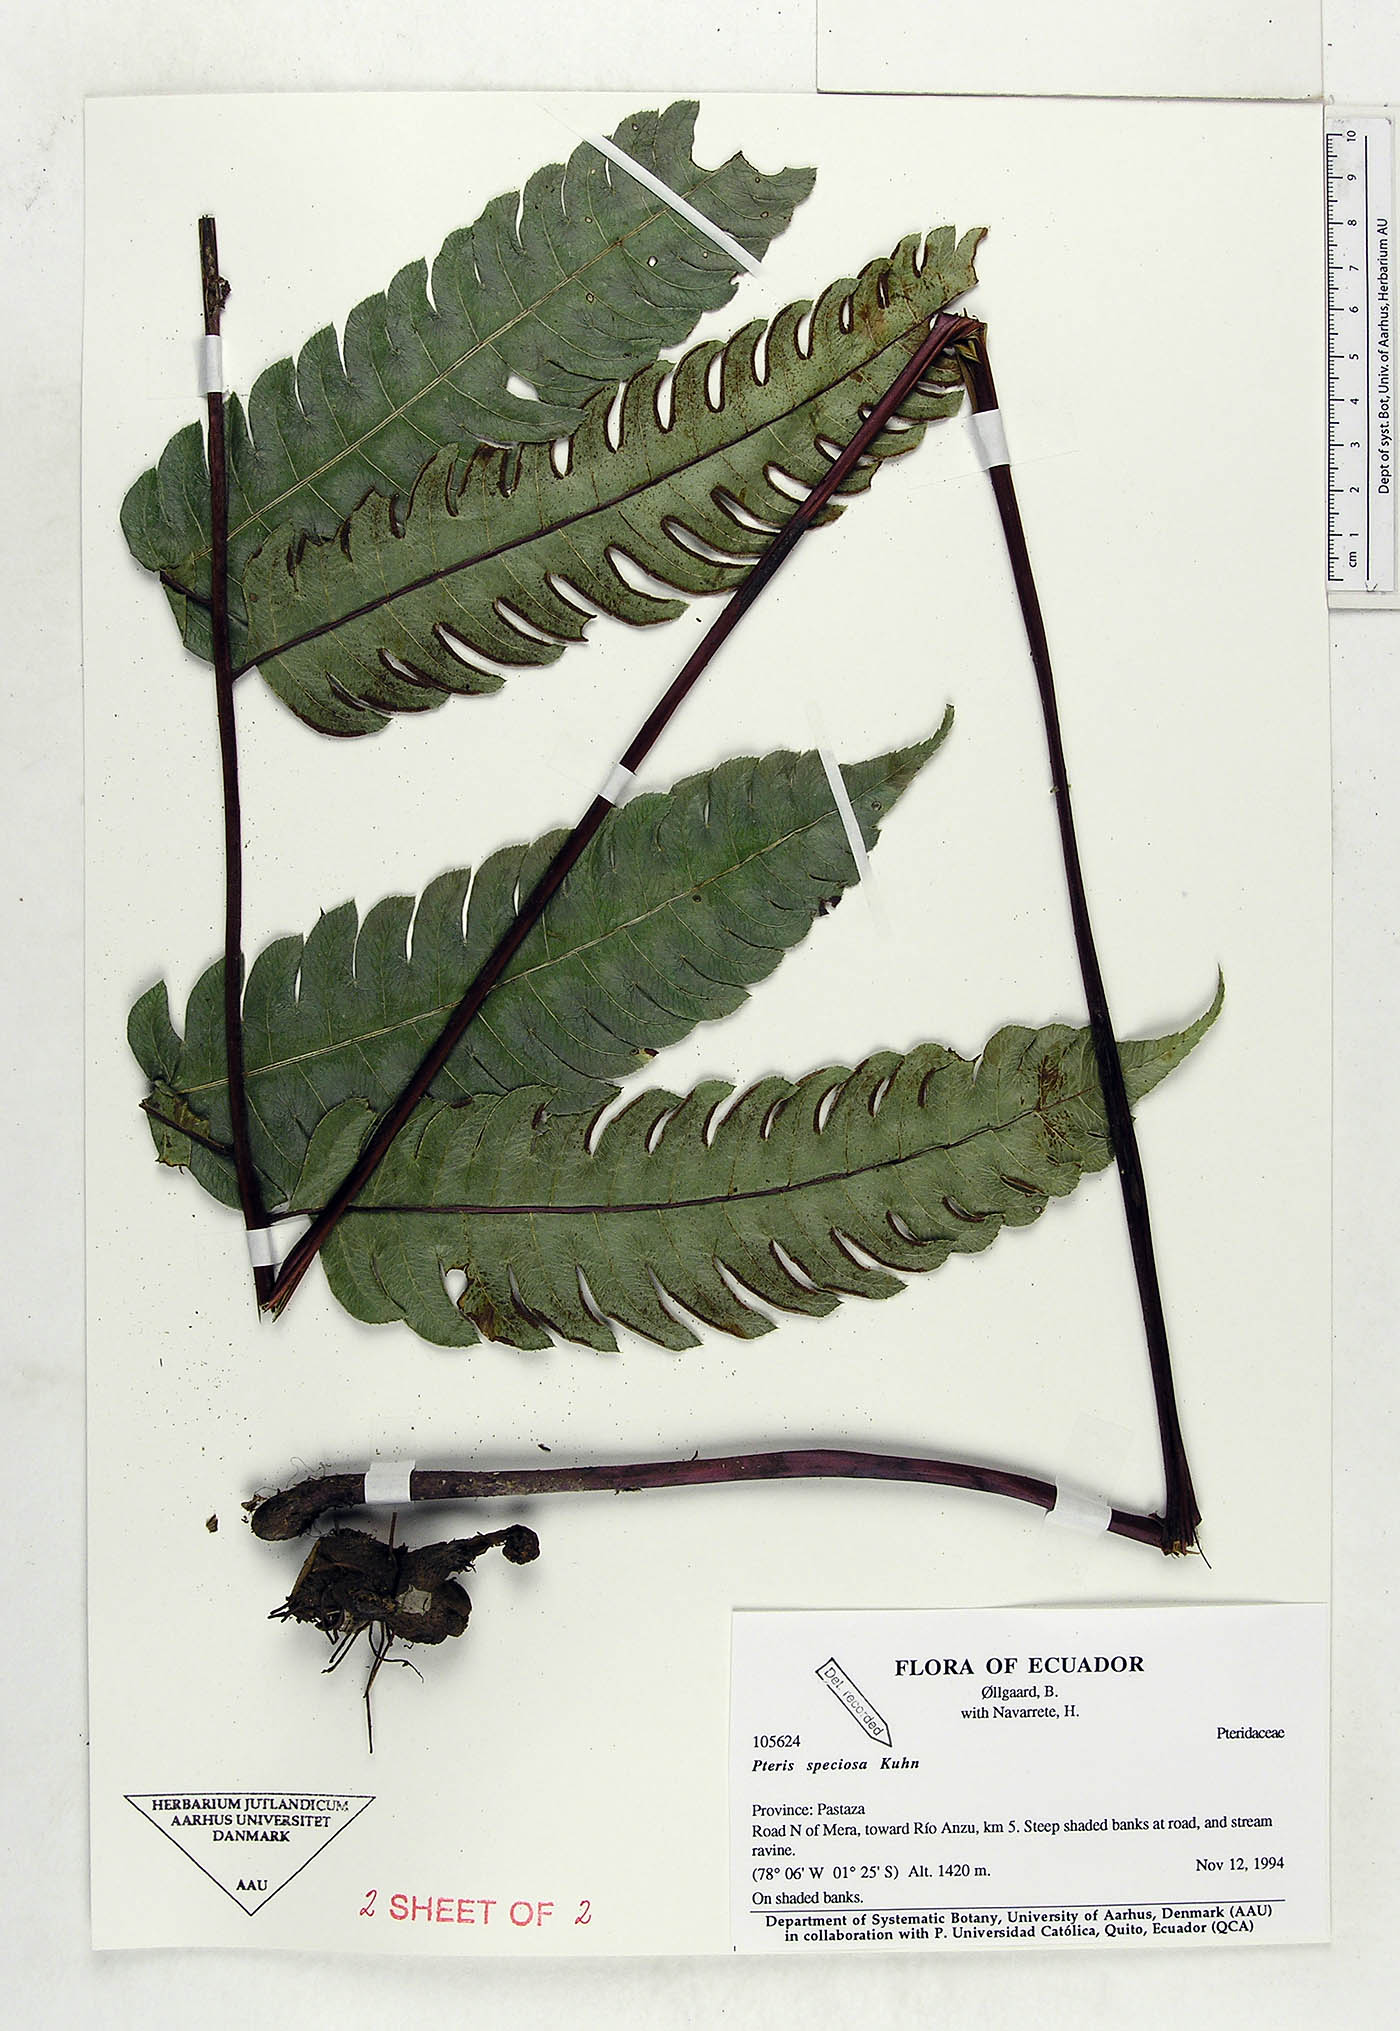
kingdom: Plantae
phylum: Tracheophyta
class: Polypodiopsida
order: Polypodiales
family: Pteridaceae
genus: Pteris
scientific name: Pteris speciosa
